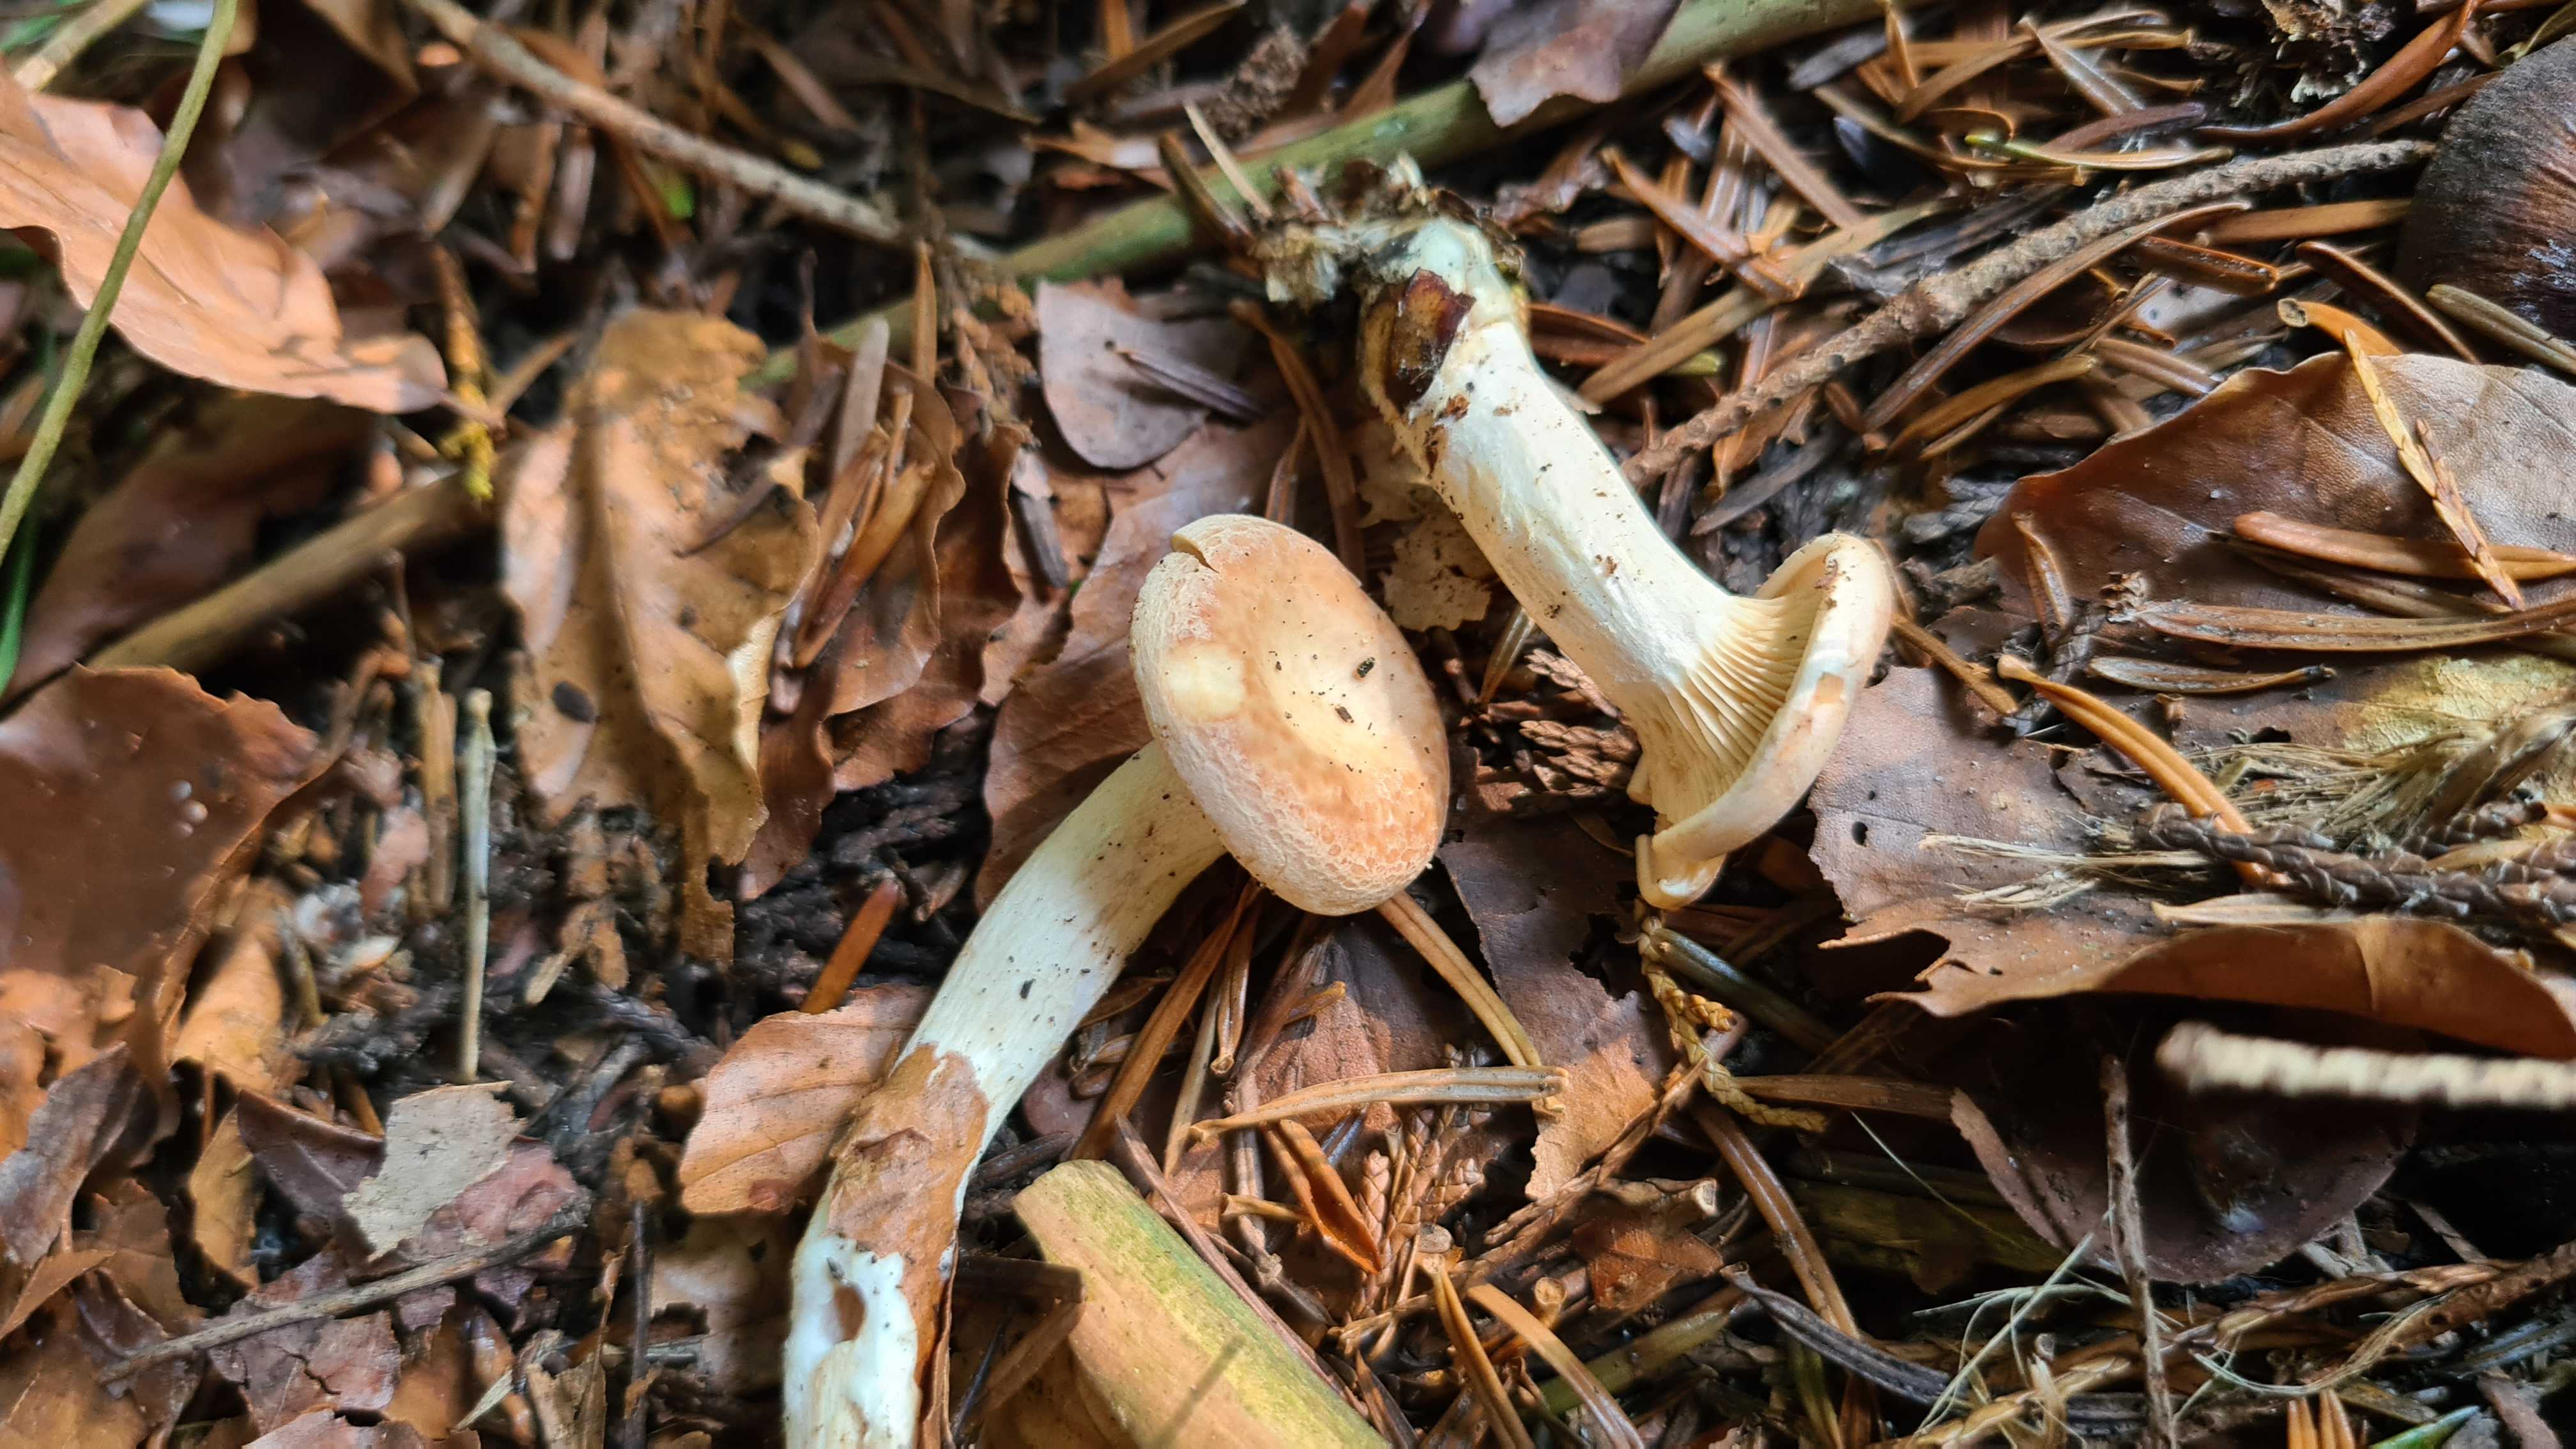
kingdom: Fungi
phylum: Basidiomycota
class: Agaricomycetes
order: Agaricales
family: Tricholomataceae
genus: Paralepista
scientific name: Paralepista gilva
